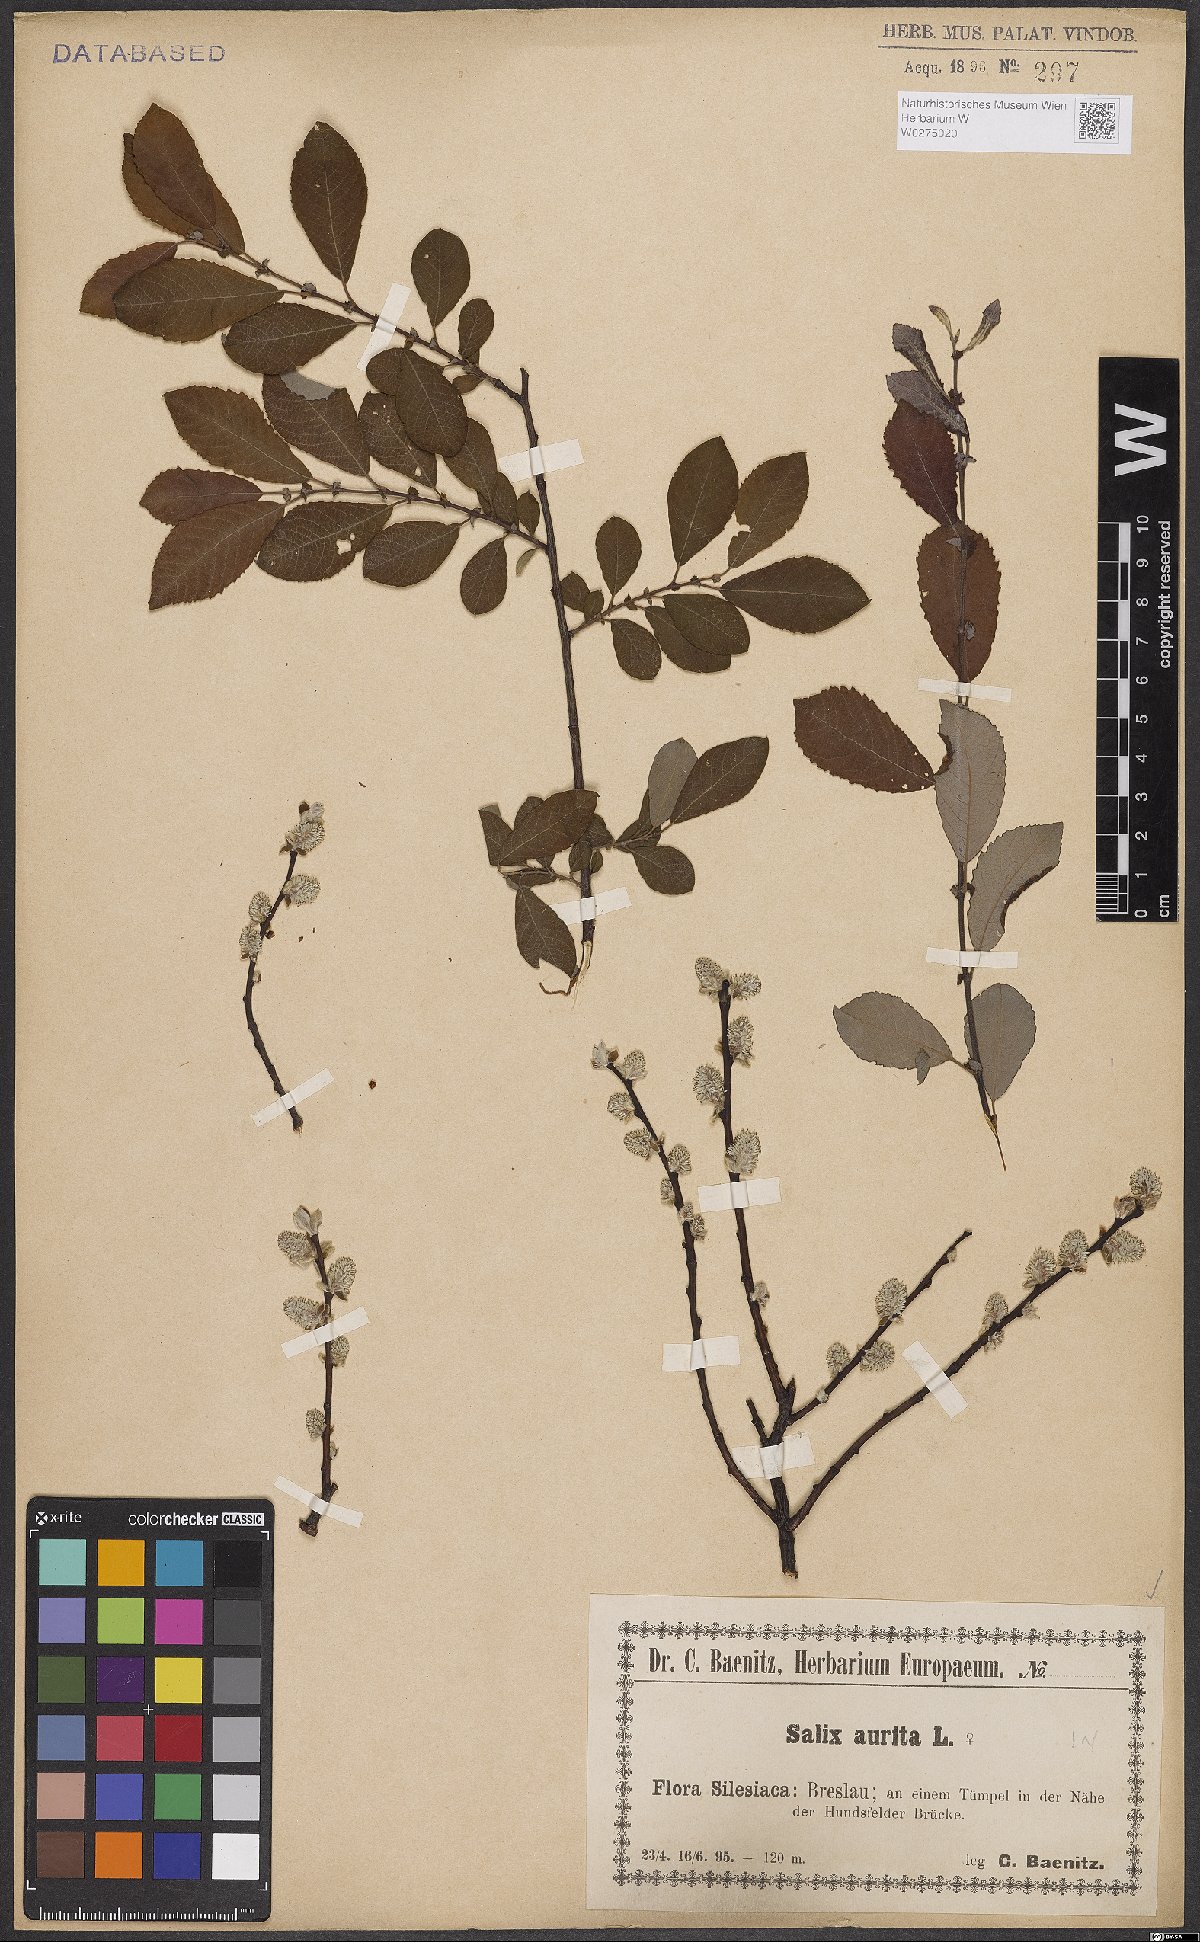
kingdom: Plantae
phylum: Tracheophyta
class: Magnoliopsida
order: Malpighiales
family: Salicaceae
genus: Salix
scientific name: Salix aurita
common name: Eared willow
